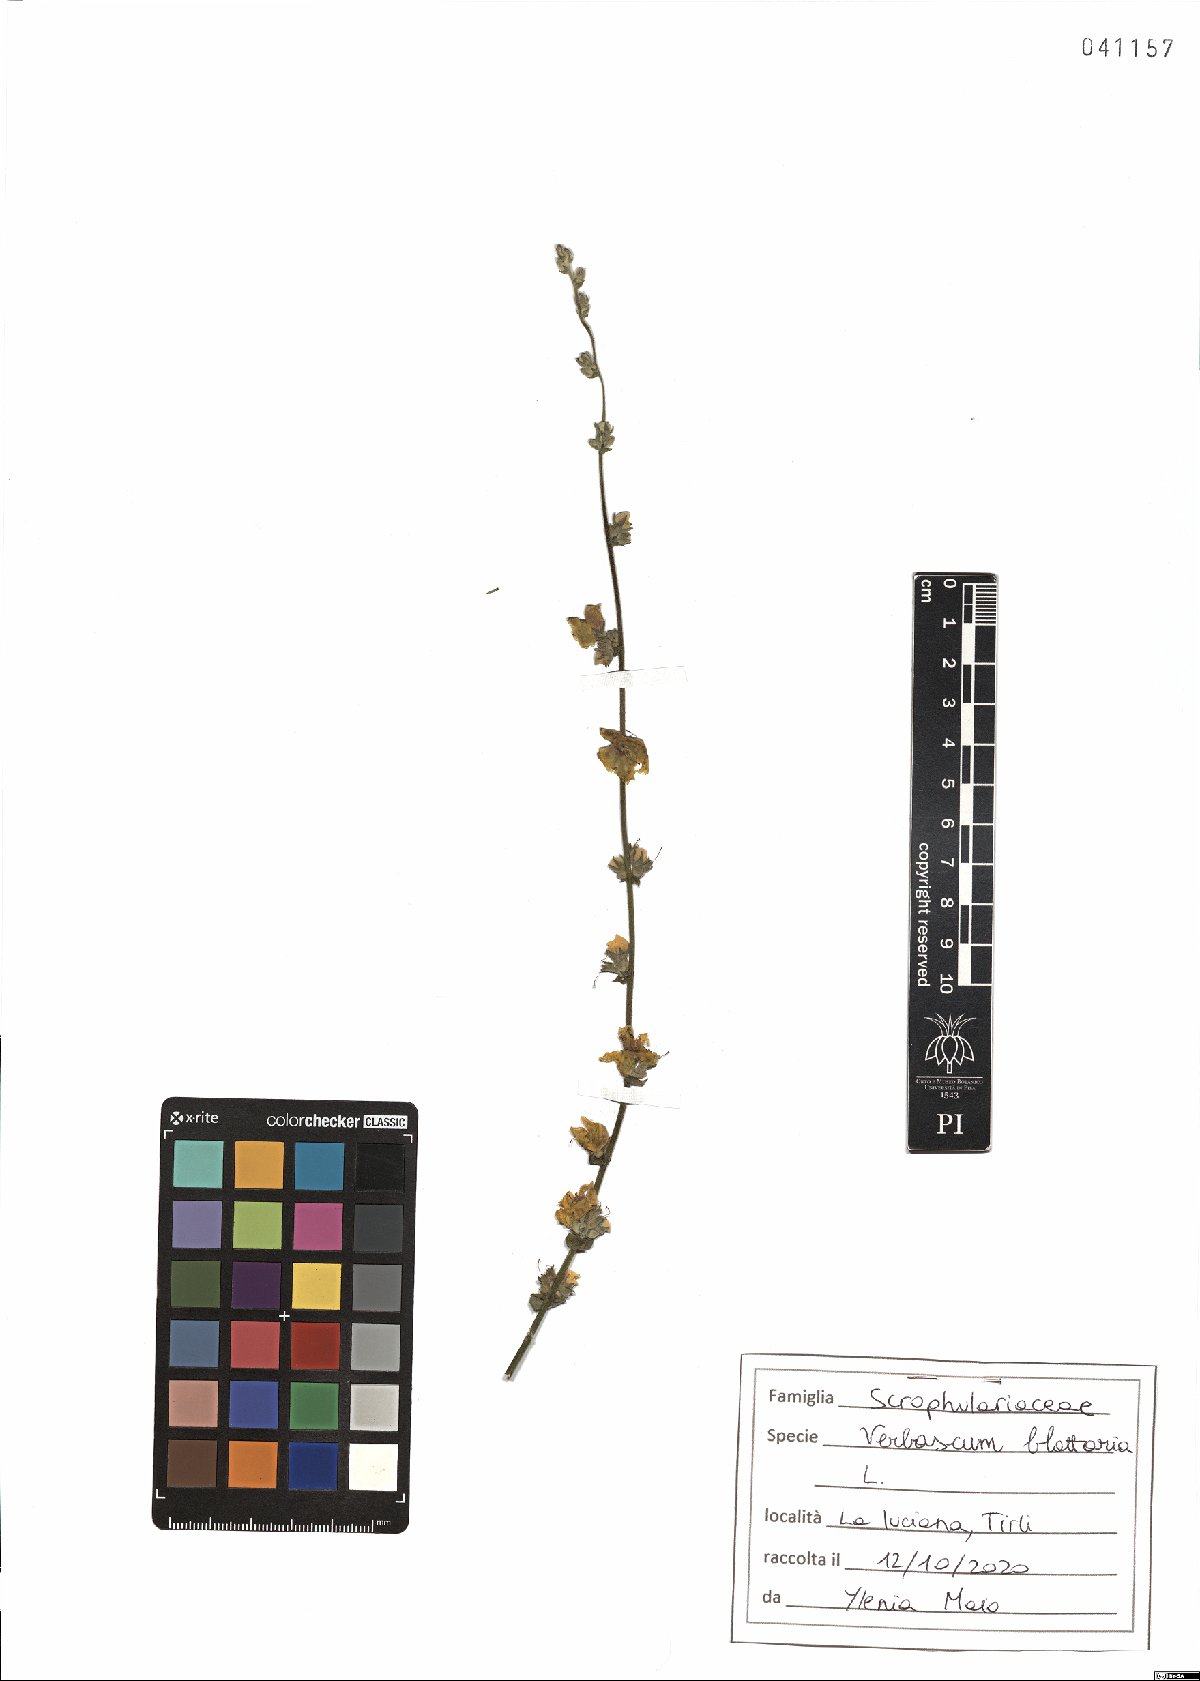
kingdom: Plantae
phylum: Tracheophyta
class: Magnoliopsida
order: Lamiales
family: Scrophulariaceae
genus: Verbascum
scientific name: Verbascum blattaria
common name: Moth mullein
